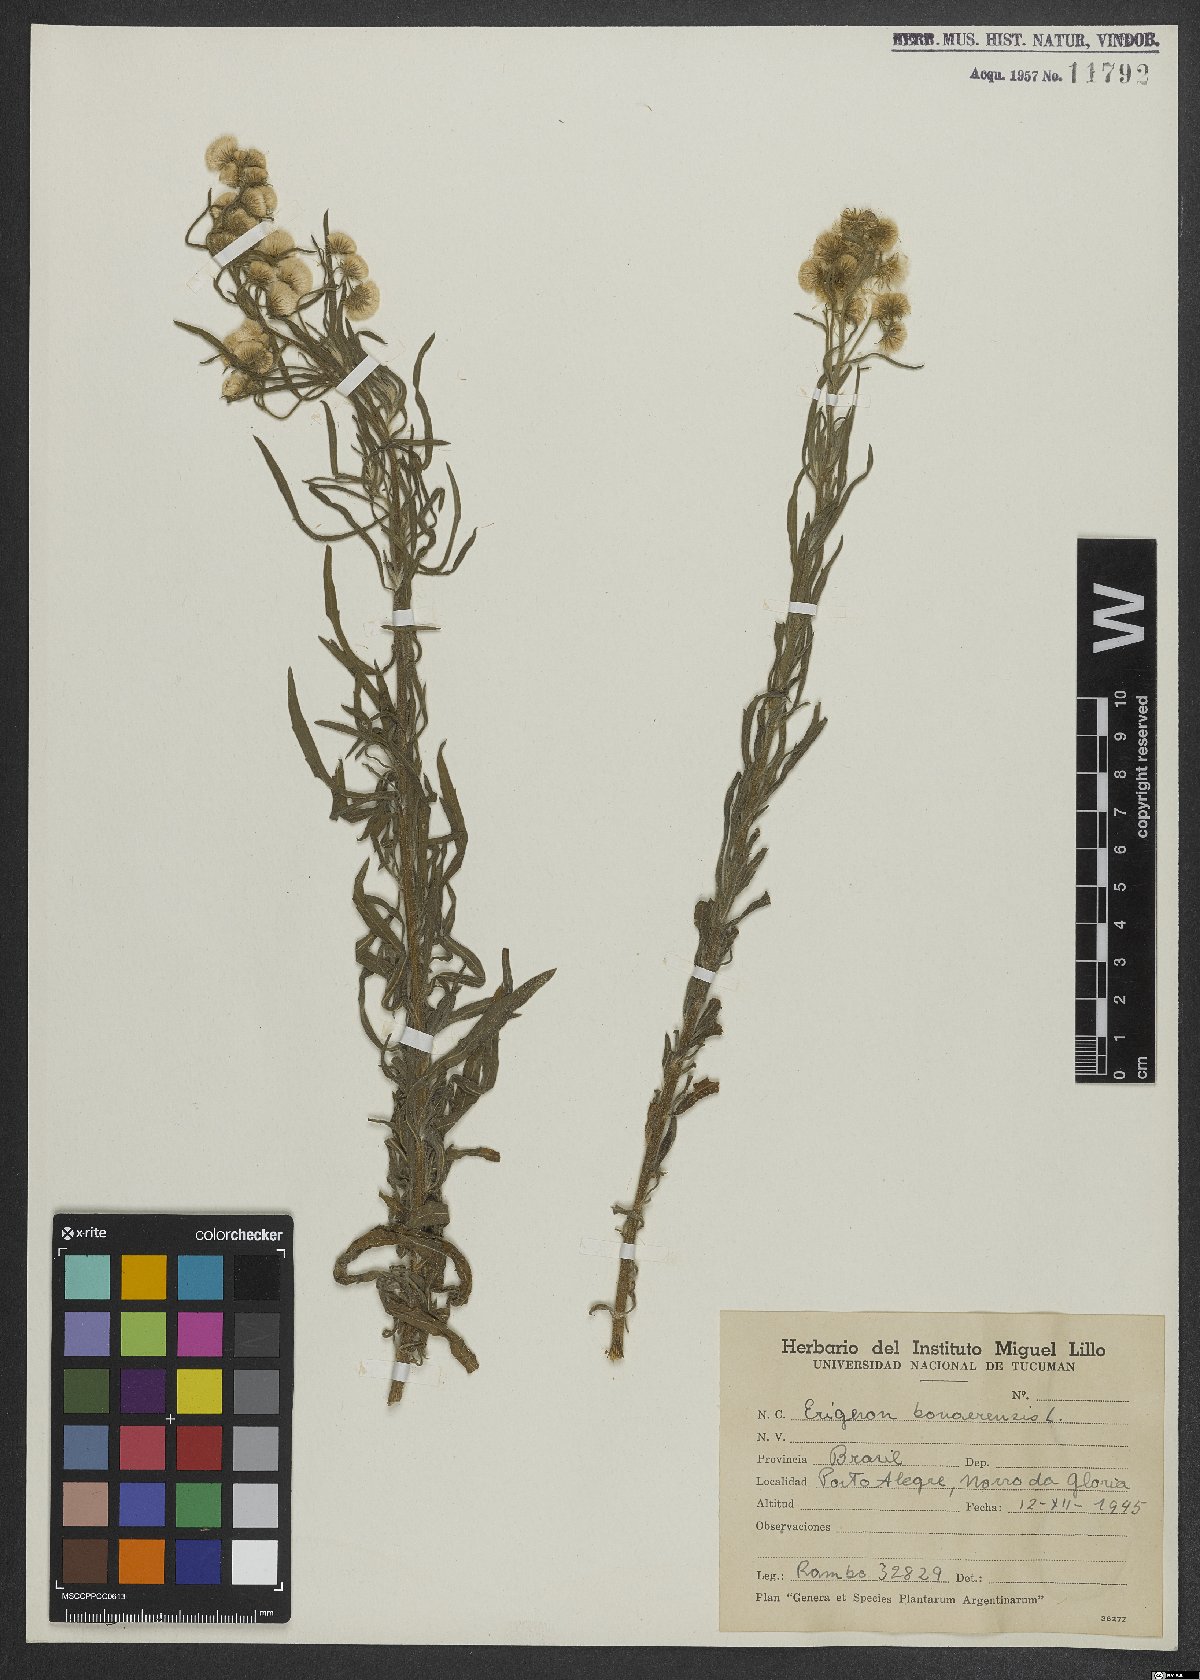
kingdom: Plantae
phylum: Tracheophyta
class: Magnoliopsida
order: Asterales
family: Asteraceae
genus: Erigeron
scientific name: Erigeron bonariensis
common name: Argentine fleabane
